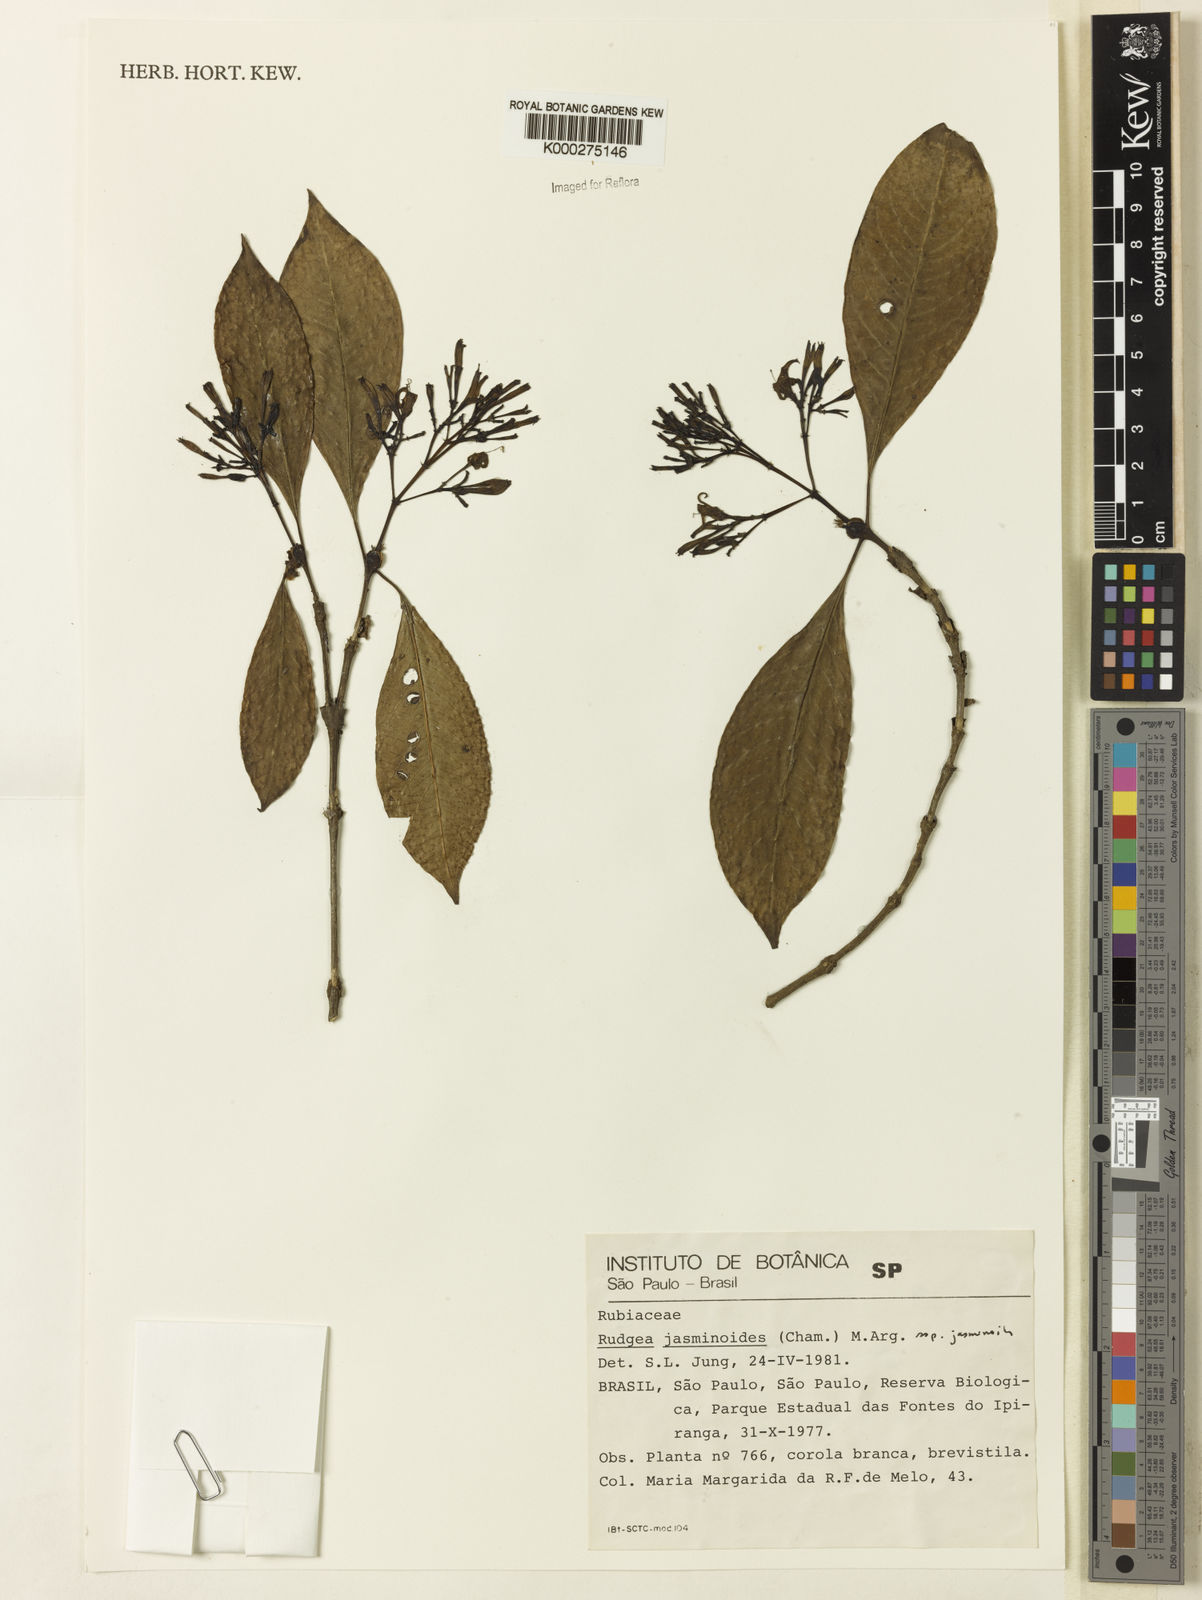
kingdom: Plantae
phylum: Tracheophyta
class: Magnoliopsida
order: Gentianales
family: Rubiaceae
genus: Rudgea
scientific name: Rudgea jasminoides
